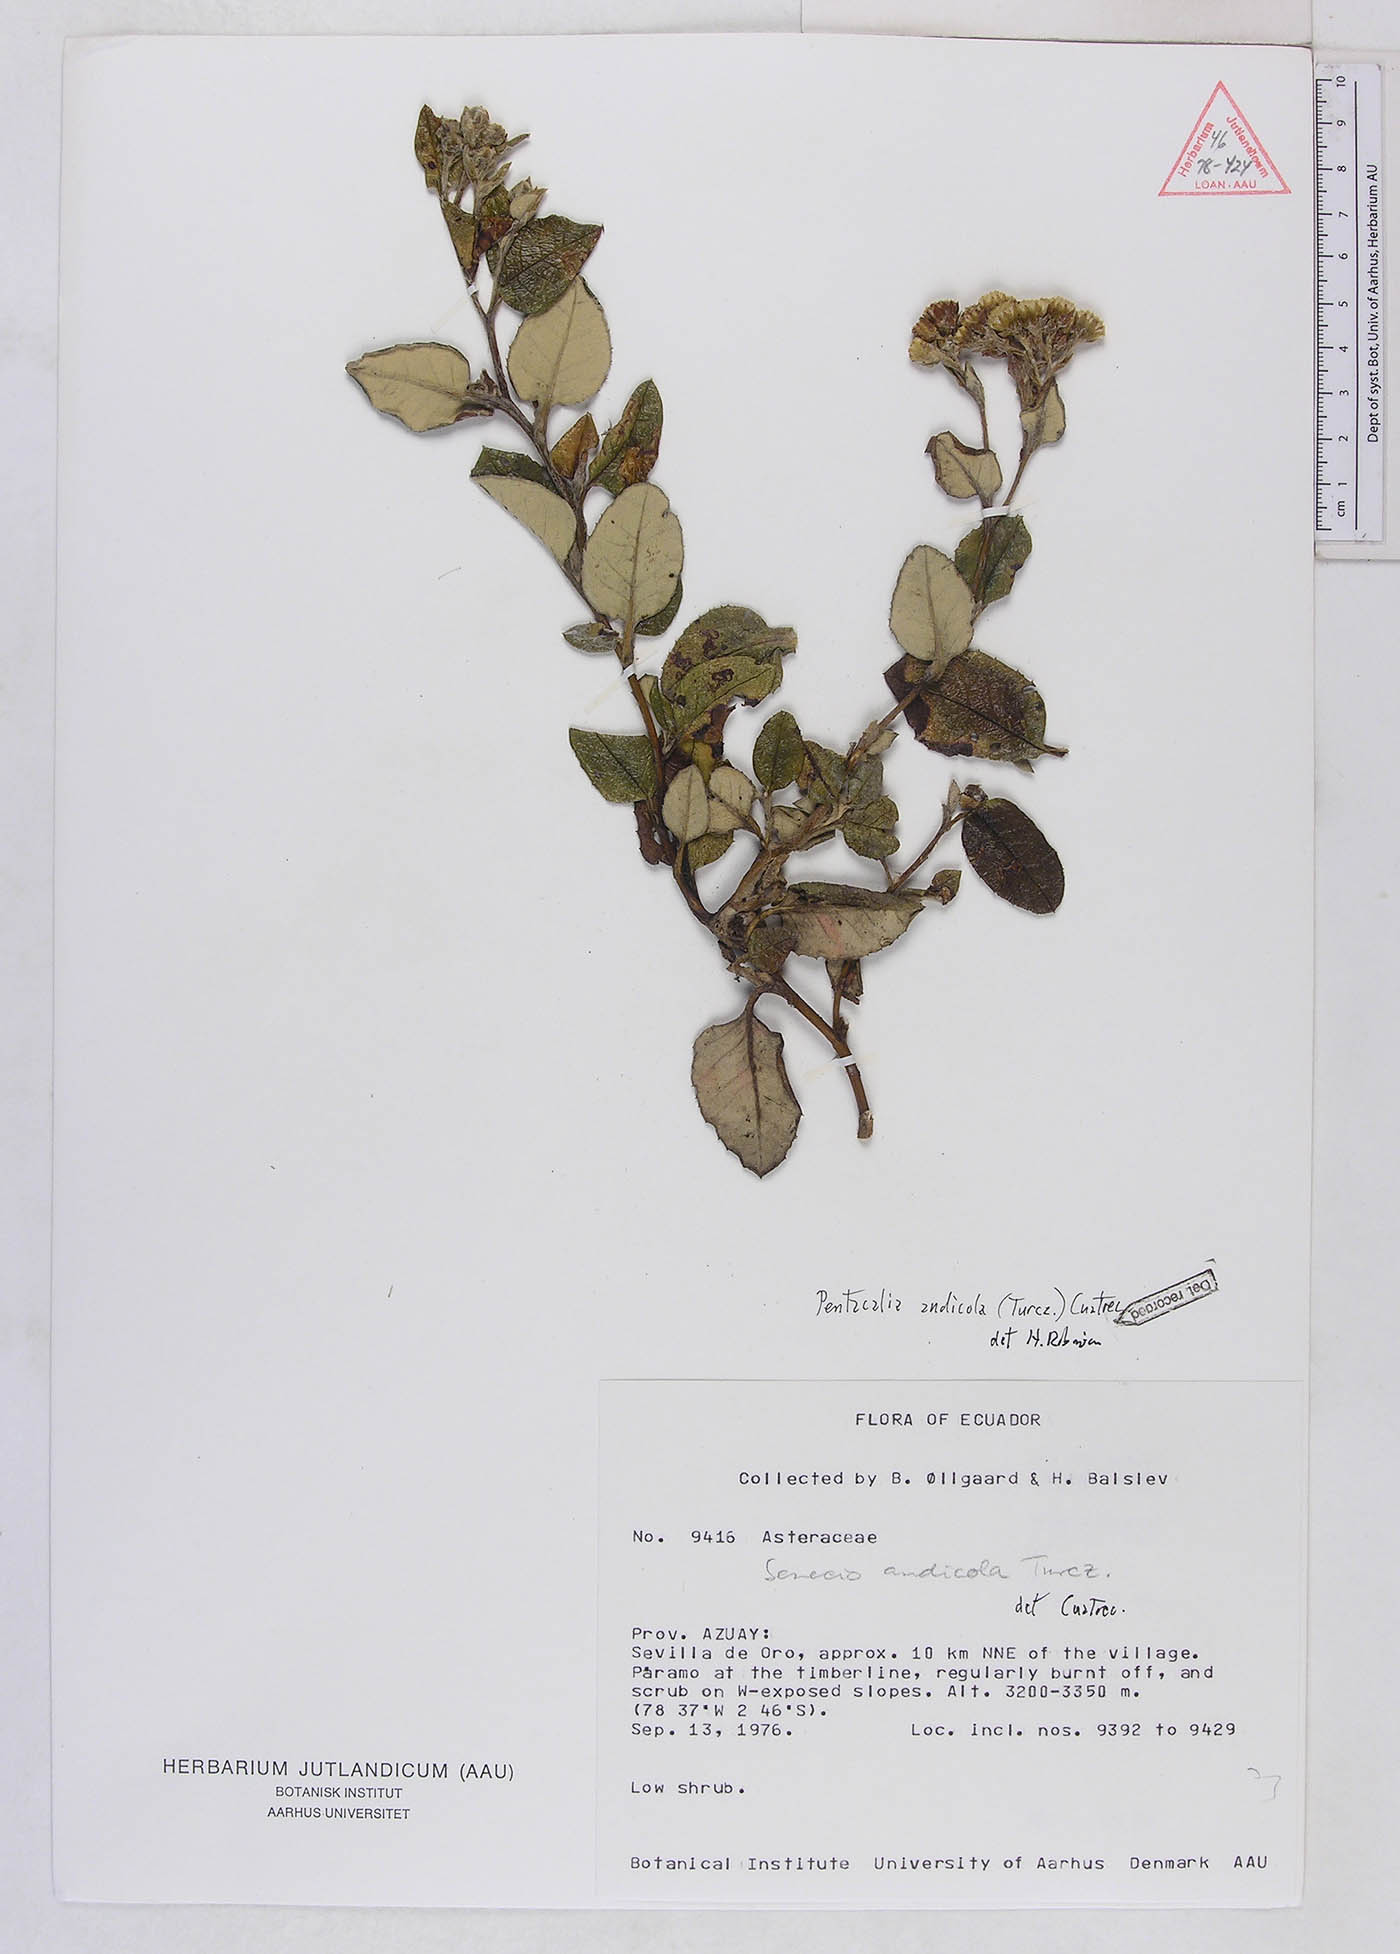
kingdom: Plantae
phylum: Tracheophyta
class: Magnoliopsida
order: Asterales
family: Asteraceae
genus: Monticalia
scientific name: Monticalia andicola
